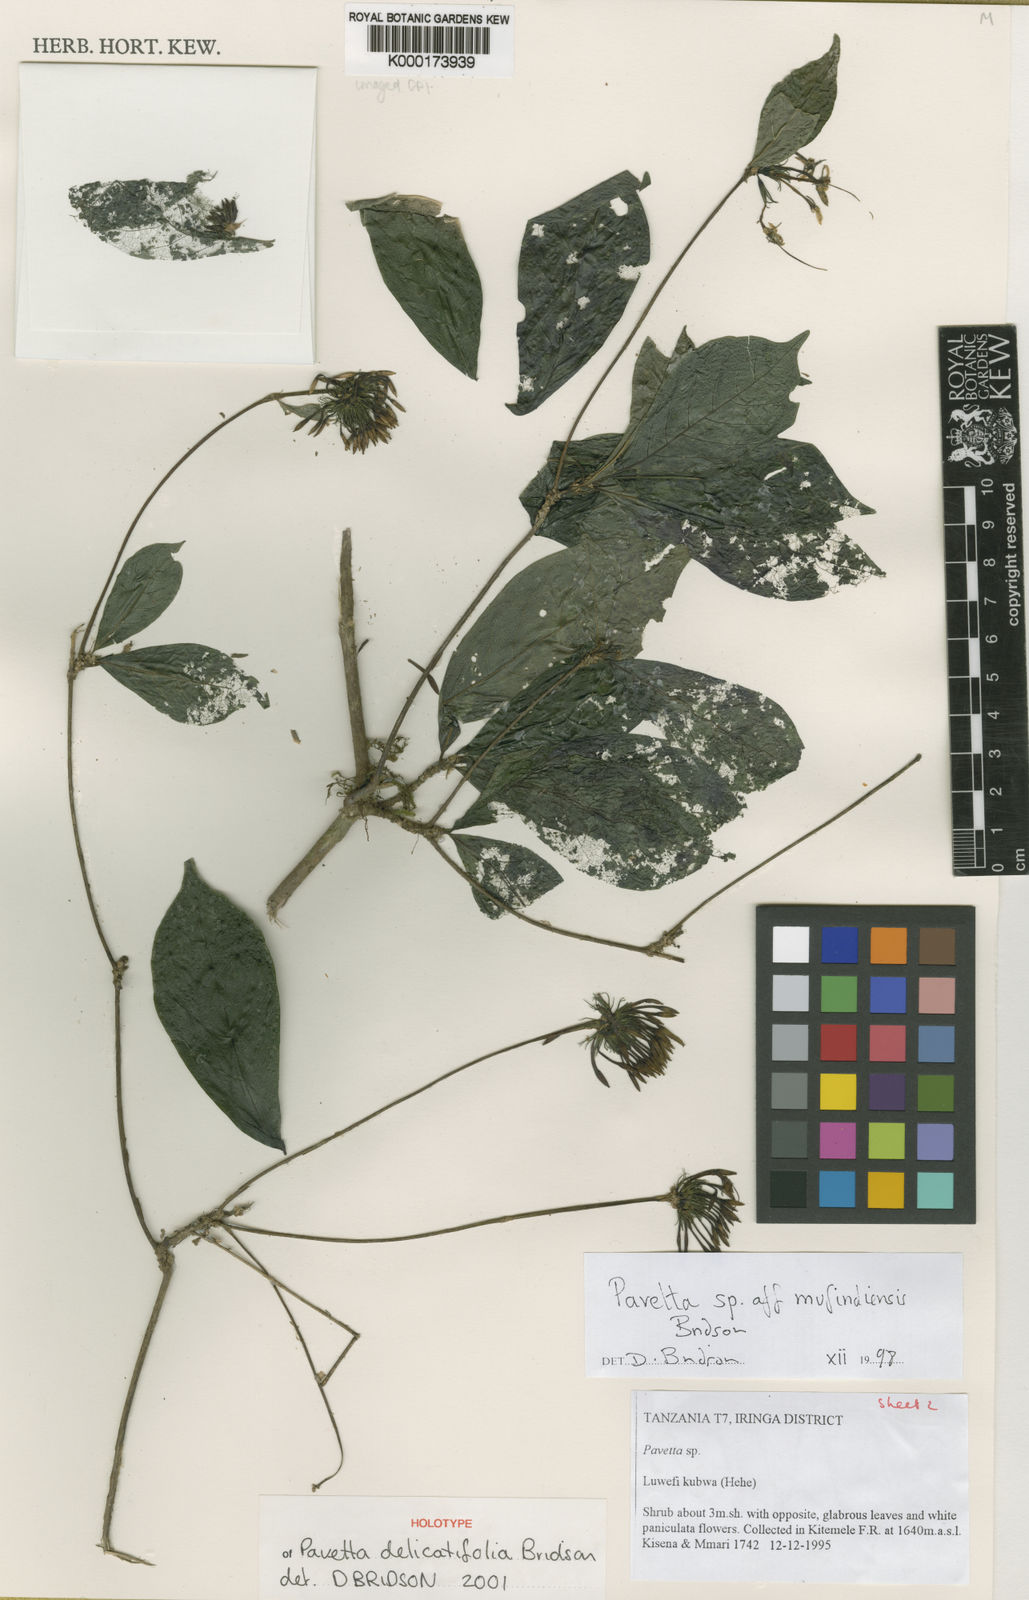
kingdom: Plantae
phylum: Tracheophyta
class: Magnoliopsida
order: Gentianales
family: Rubiaceae
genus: Pavetta
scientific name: Pavetta delicatifolia
